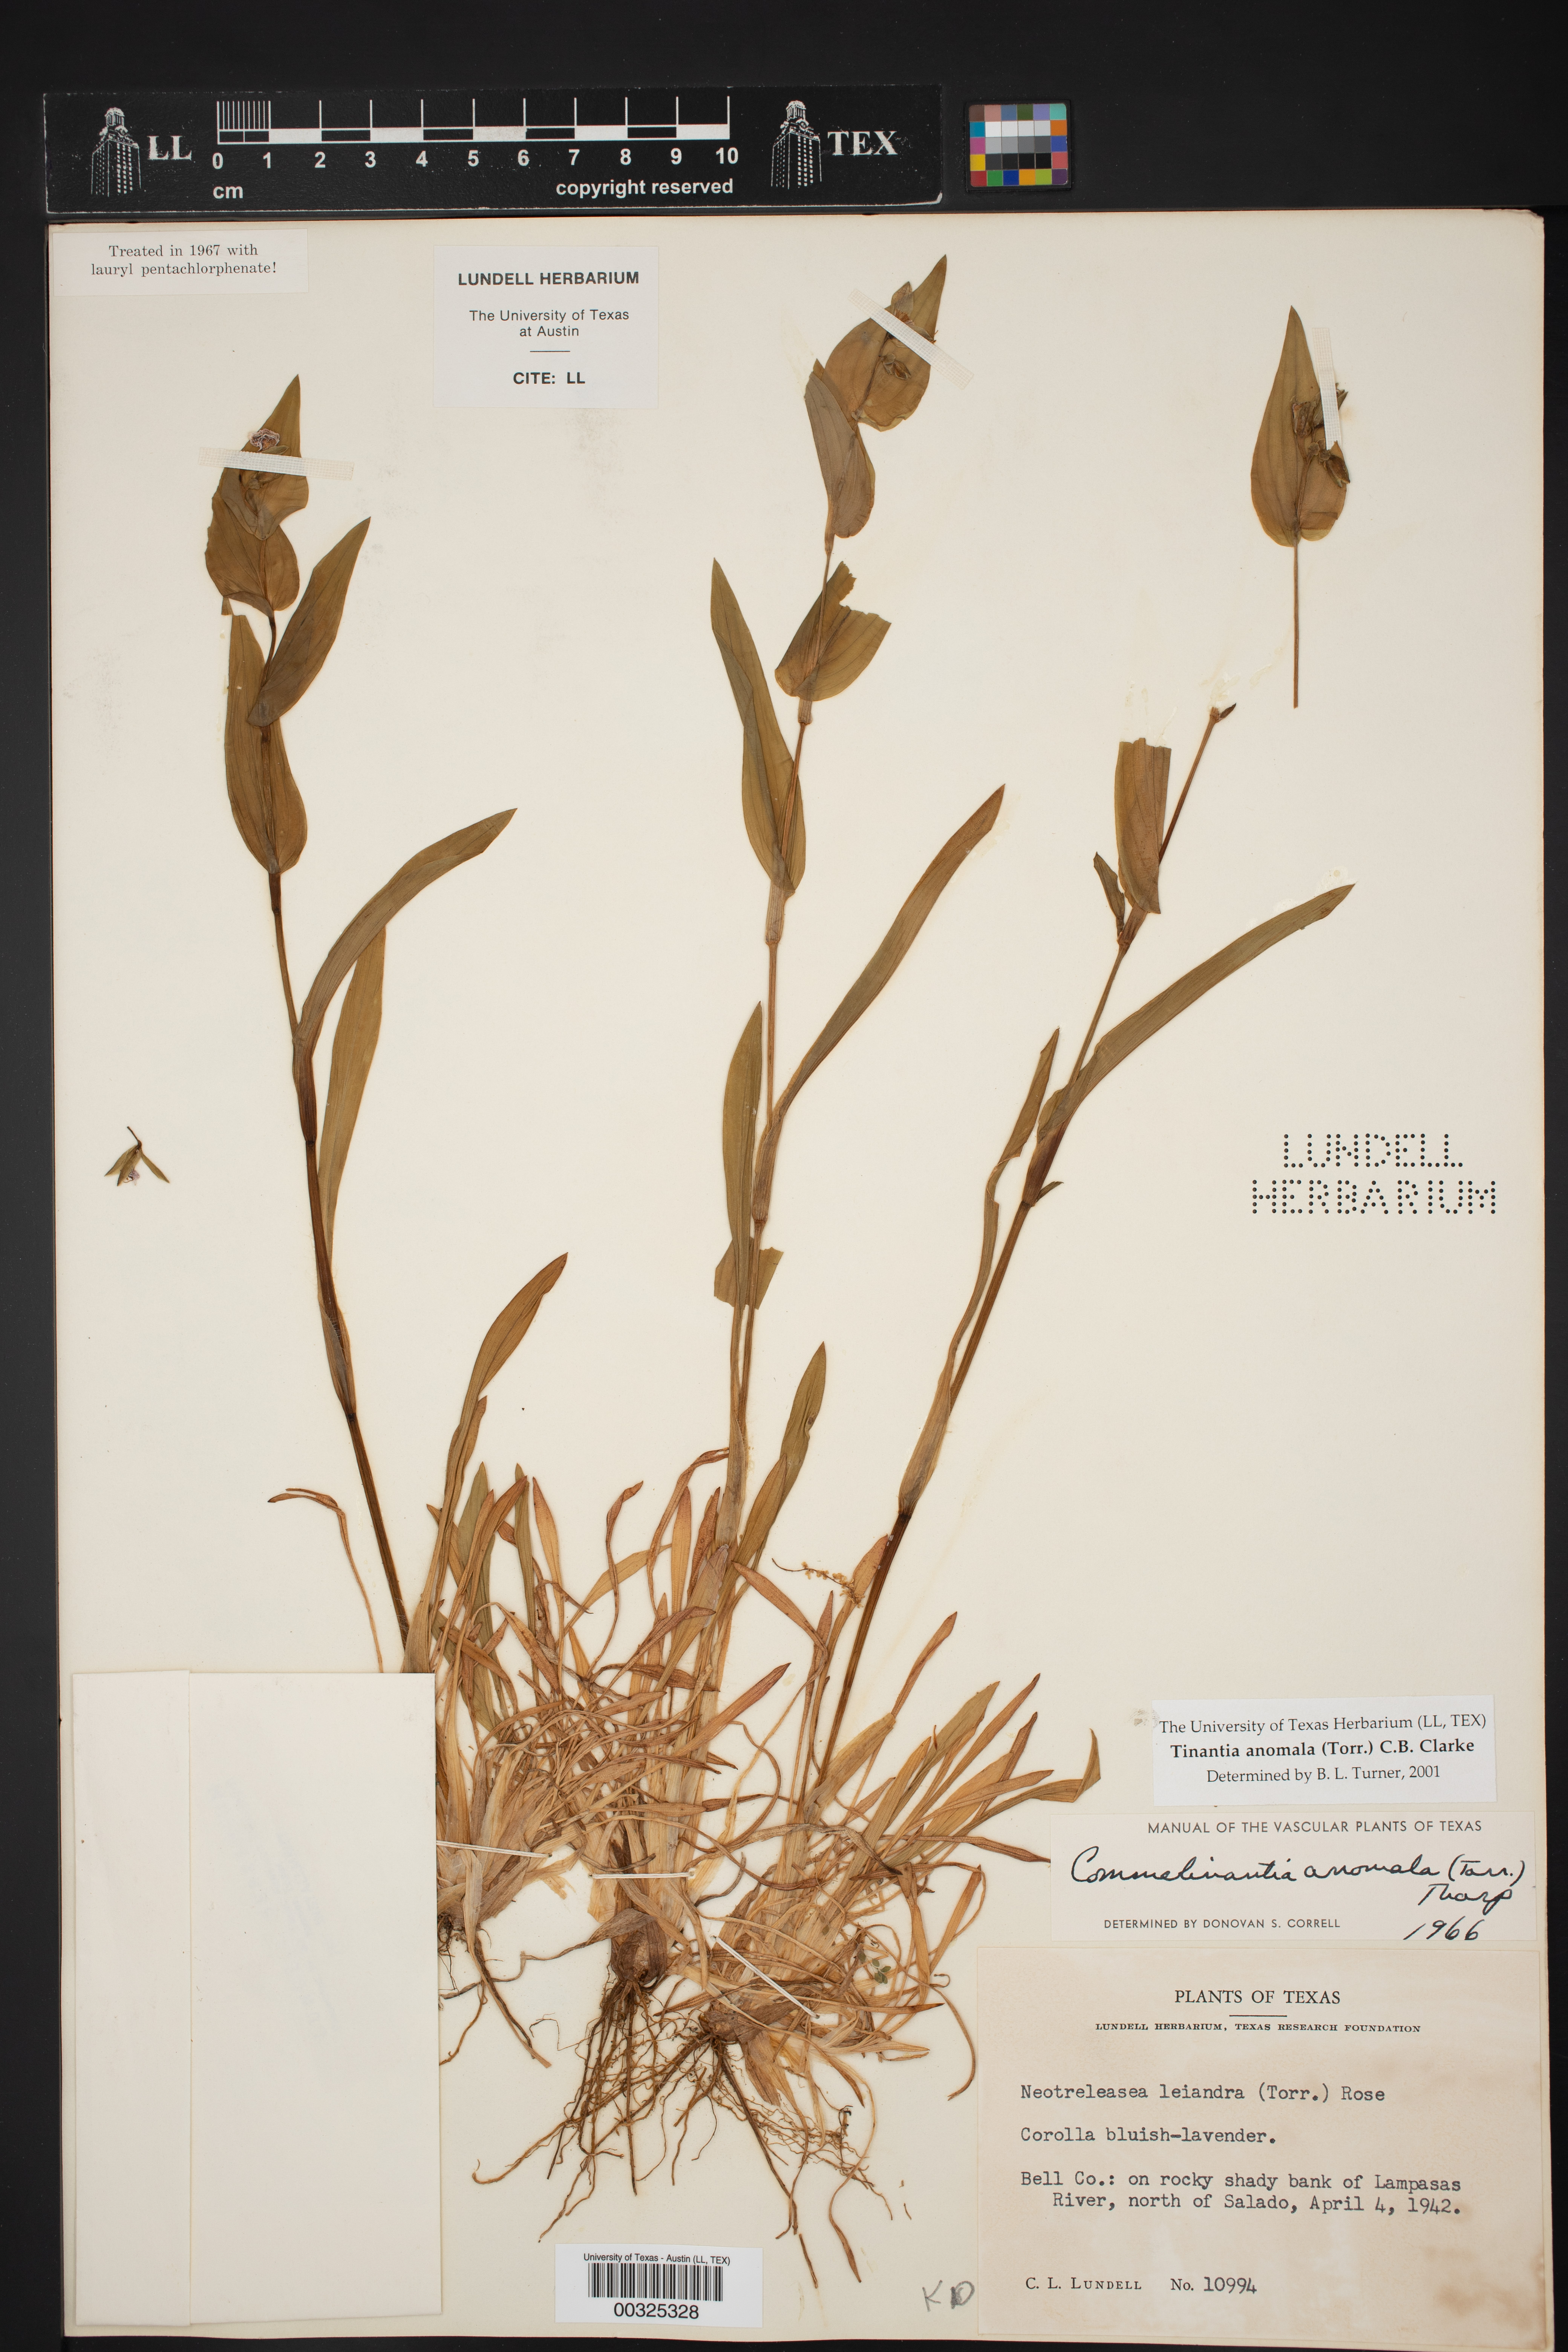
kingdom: Plantae
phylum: Tracheophyta
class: Liliopsida
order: Commelinales
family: Commelinaceae
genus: Tinantia
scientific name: Tinantia anomala
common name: False dayflower
